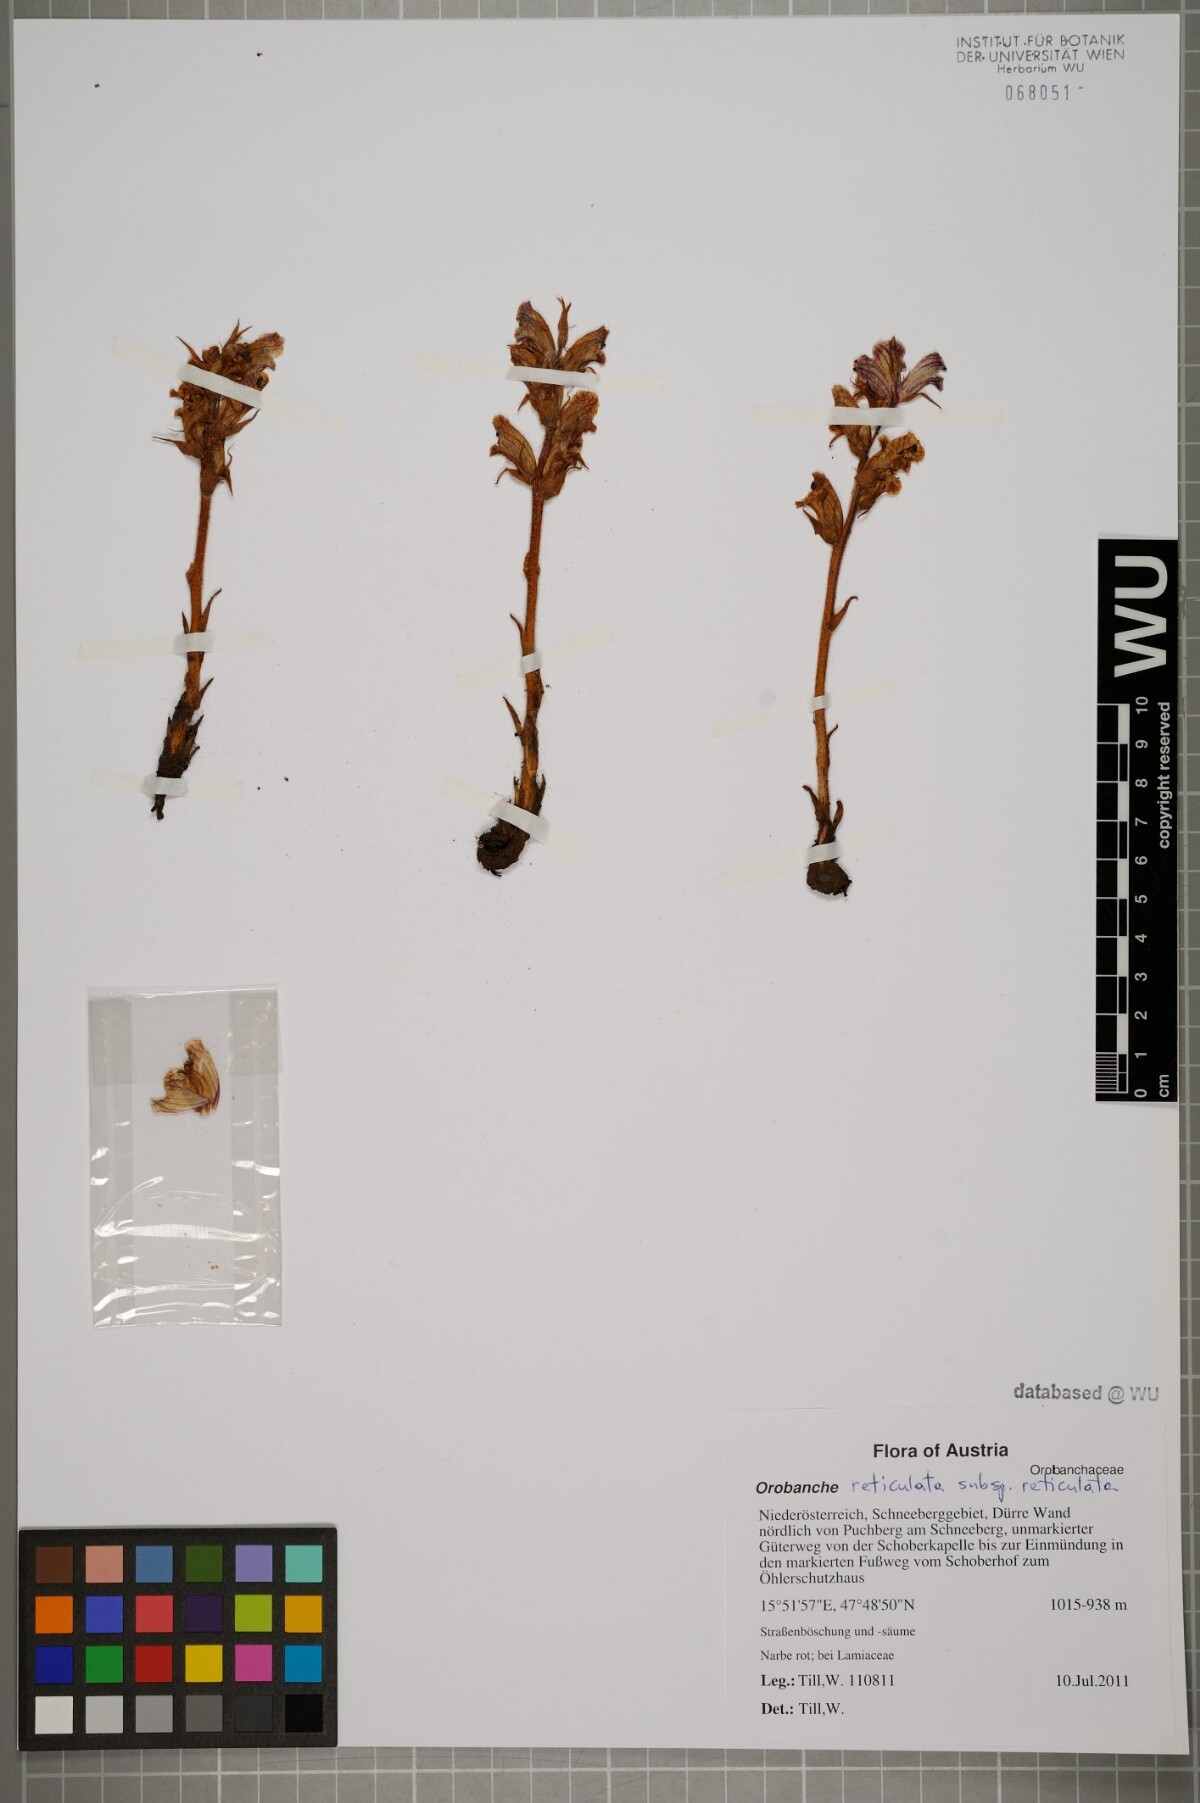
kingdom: Plantae
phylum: Tracheophyta
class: Magnoliopsida
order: Lamiales
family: Orobanchaceae
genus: Orobanche
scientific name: Orobanche reticulata
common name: Thistle broomrape
